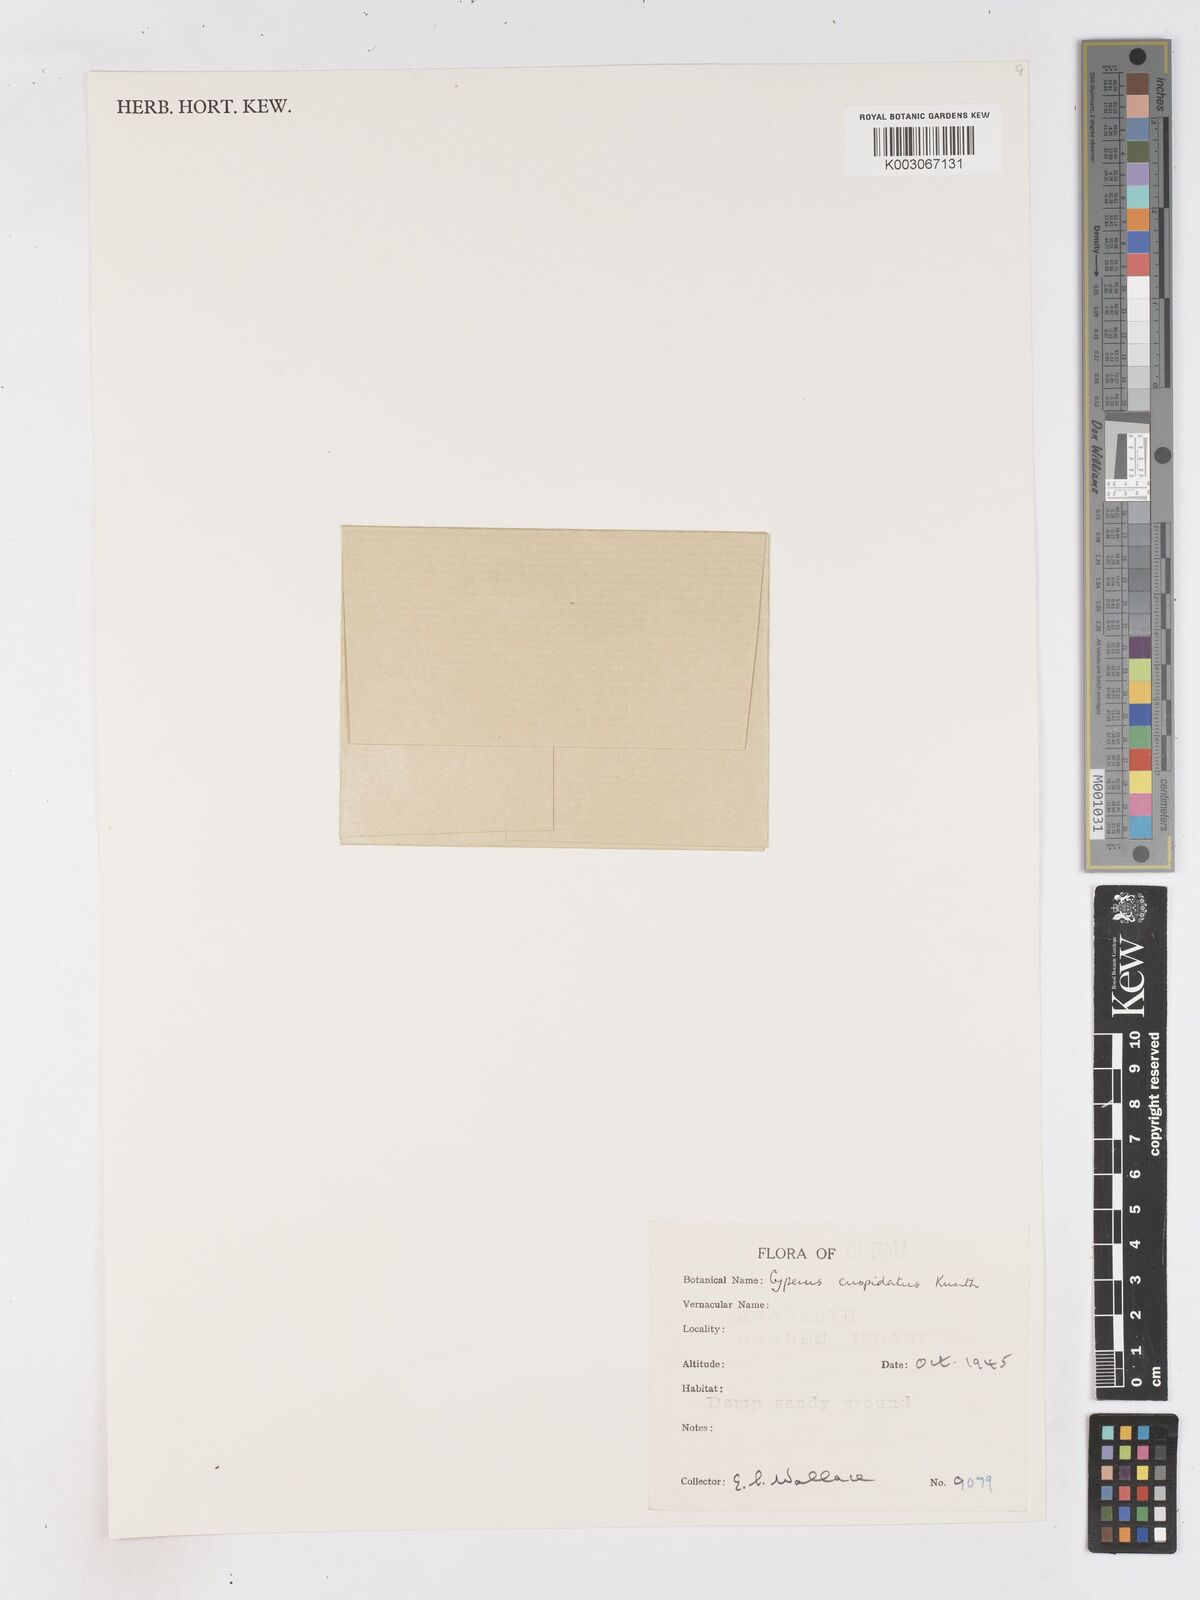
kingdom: Plantae
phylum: Tracheophyta
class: Liliopsida
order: Poales
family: Cyperaceae
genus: Cyperus
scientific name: Cyperus cuspidatus
